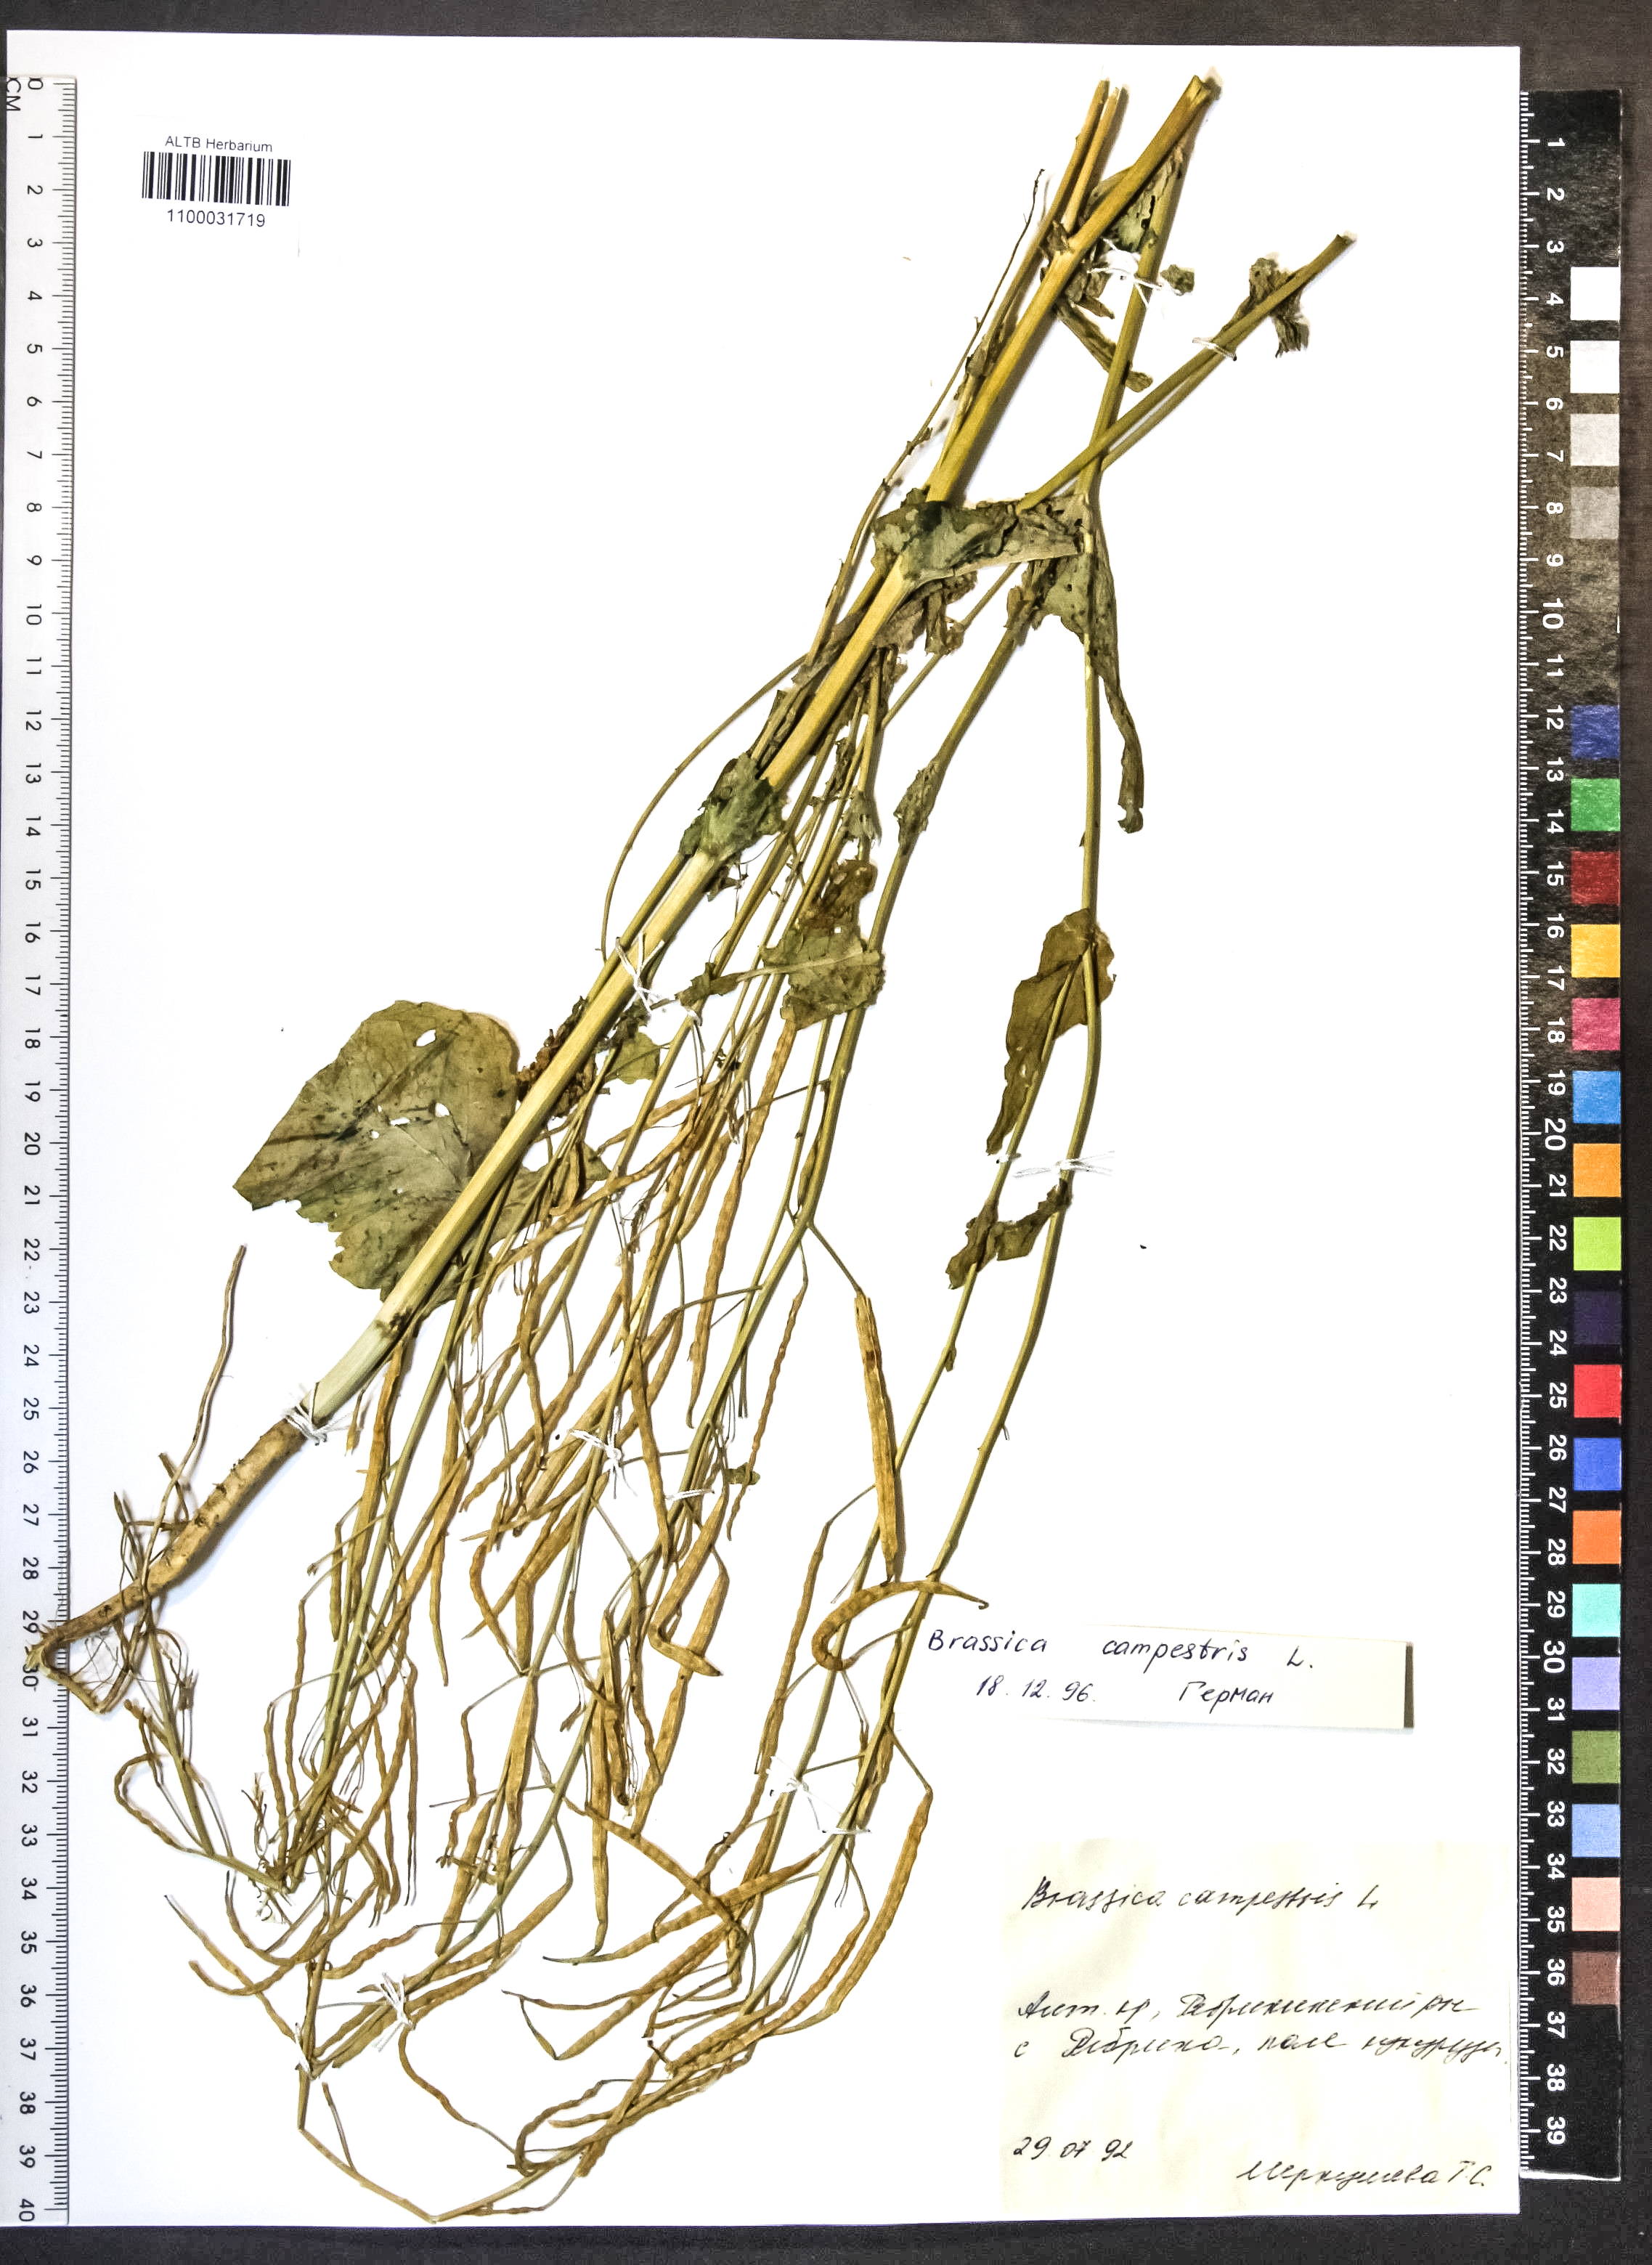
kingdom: Plantae
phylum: Tracheophyta
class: Magnoliopsida
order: Brassicales
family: Brassicaceae
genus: Brassica
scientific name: Brassica rapa
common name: Field mustard
